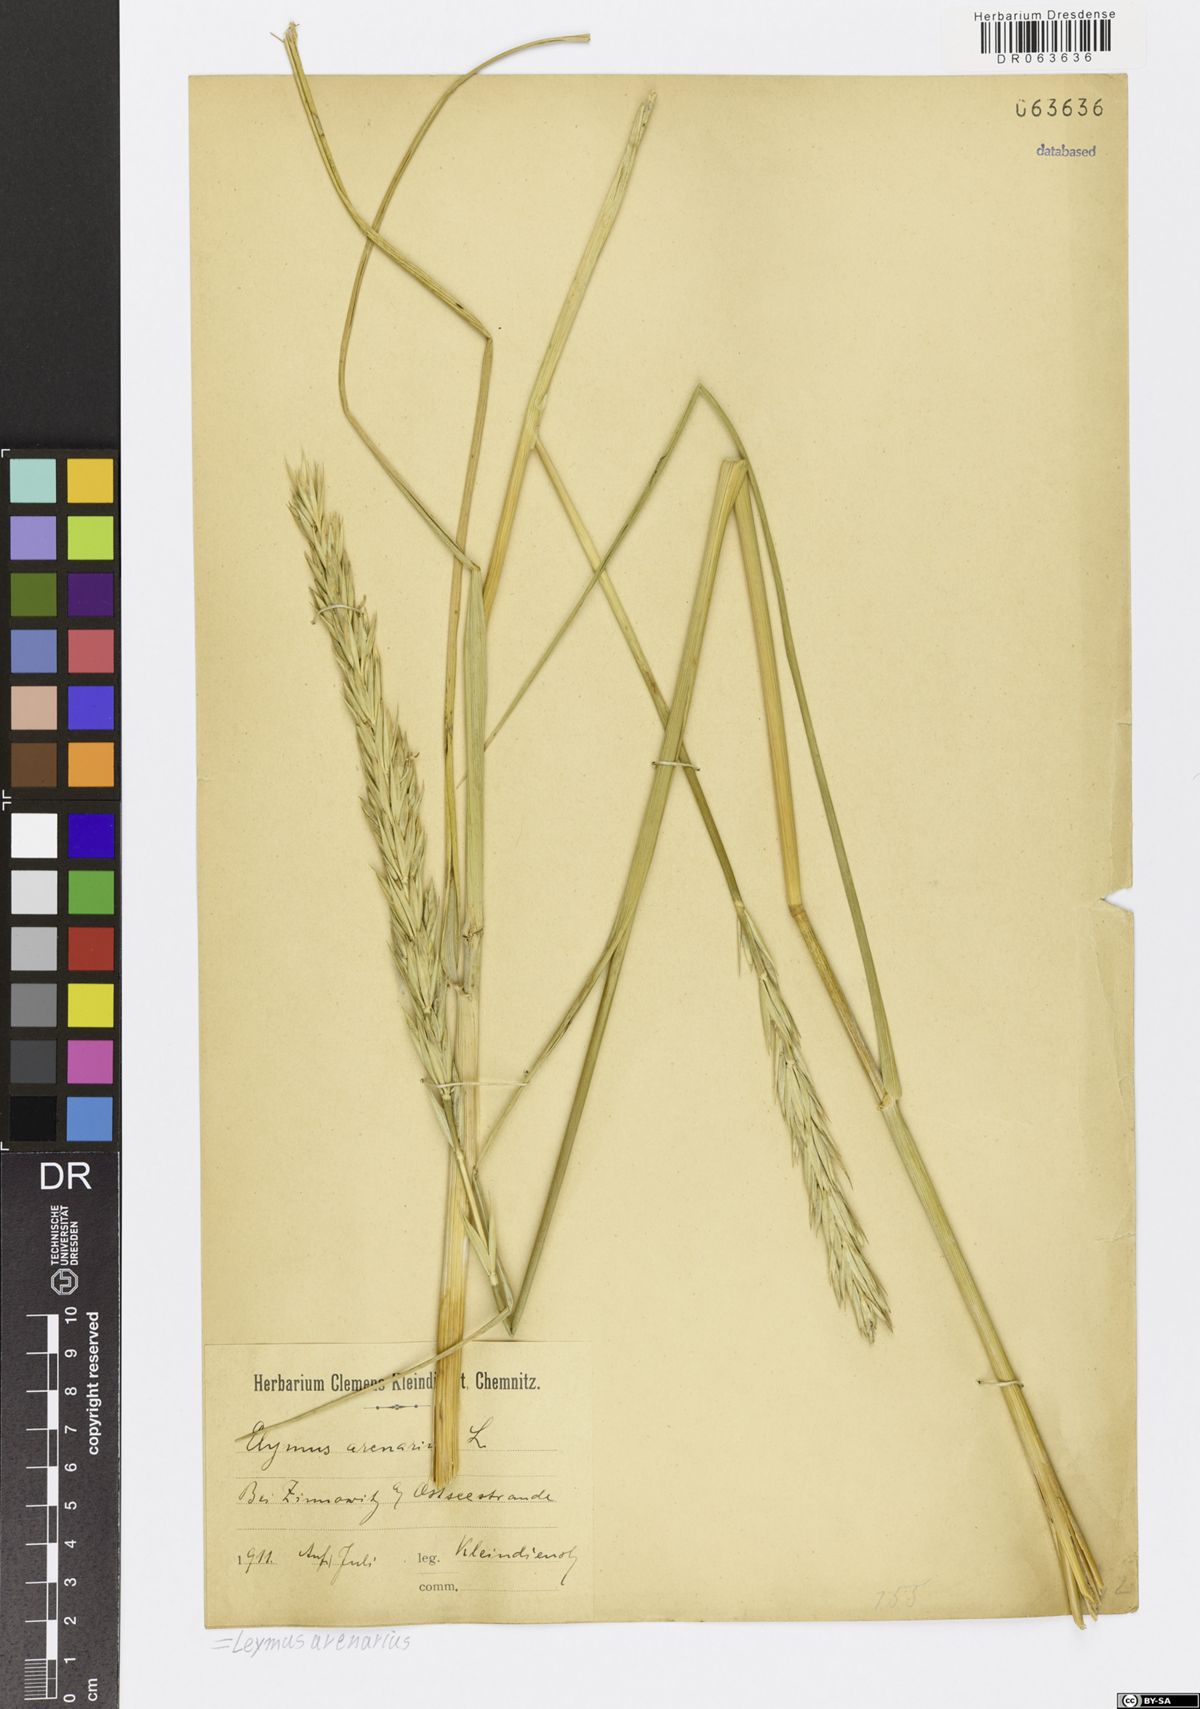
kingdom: Plantae
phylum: Tracheophyta
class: Liliopsida
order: Poales
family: Poaceae
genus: Leymus
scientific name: Leymus arenarius
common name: Lyme-grass
